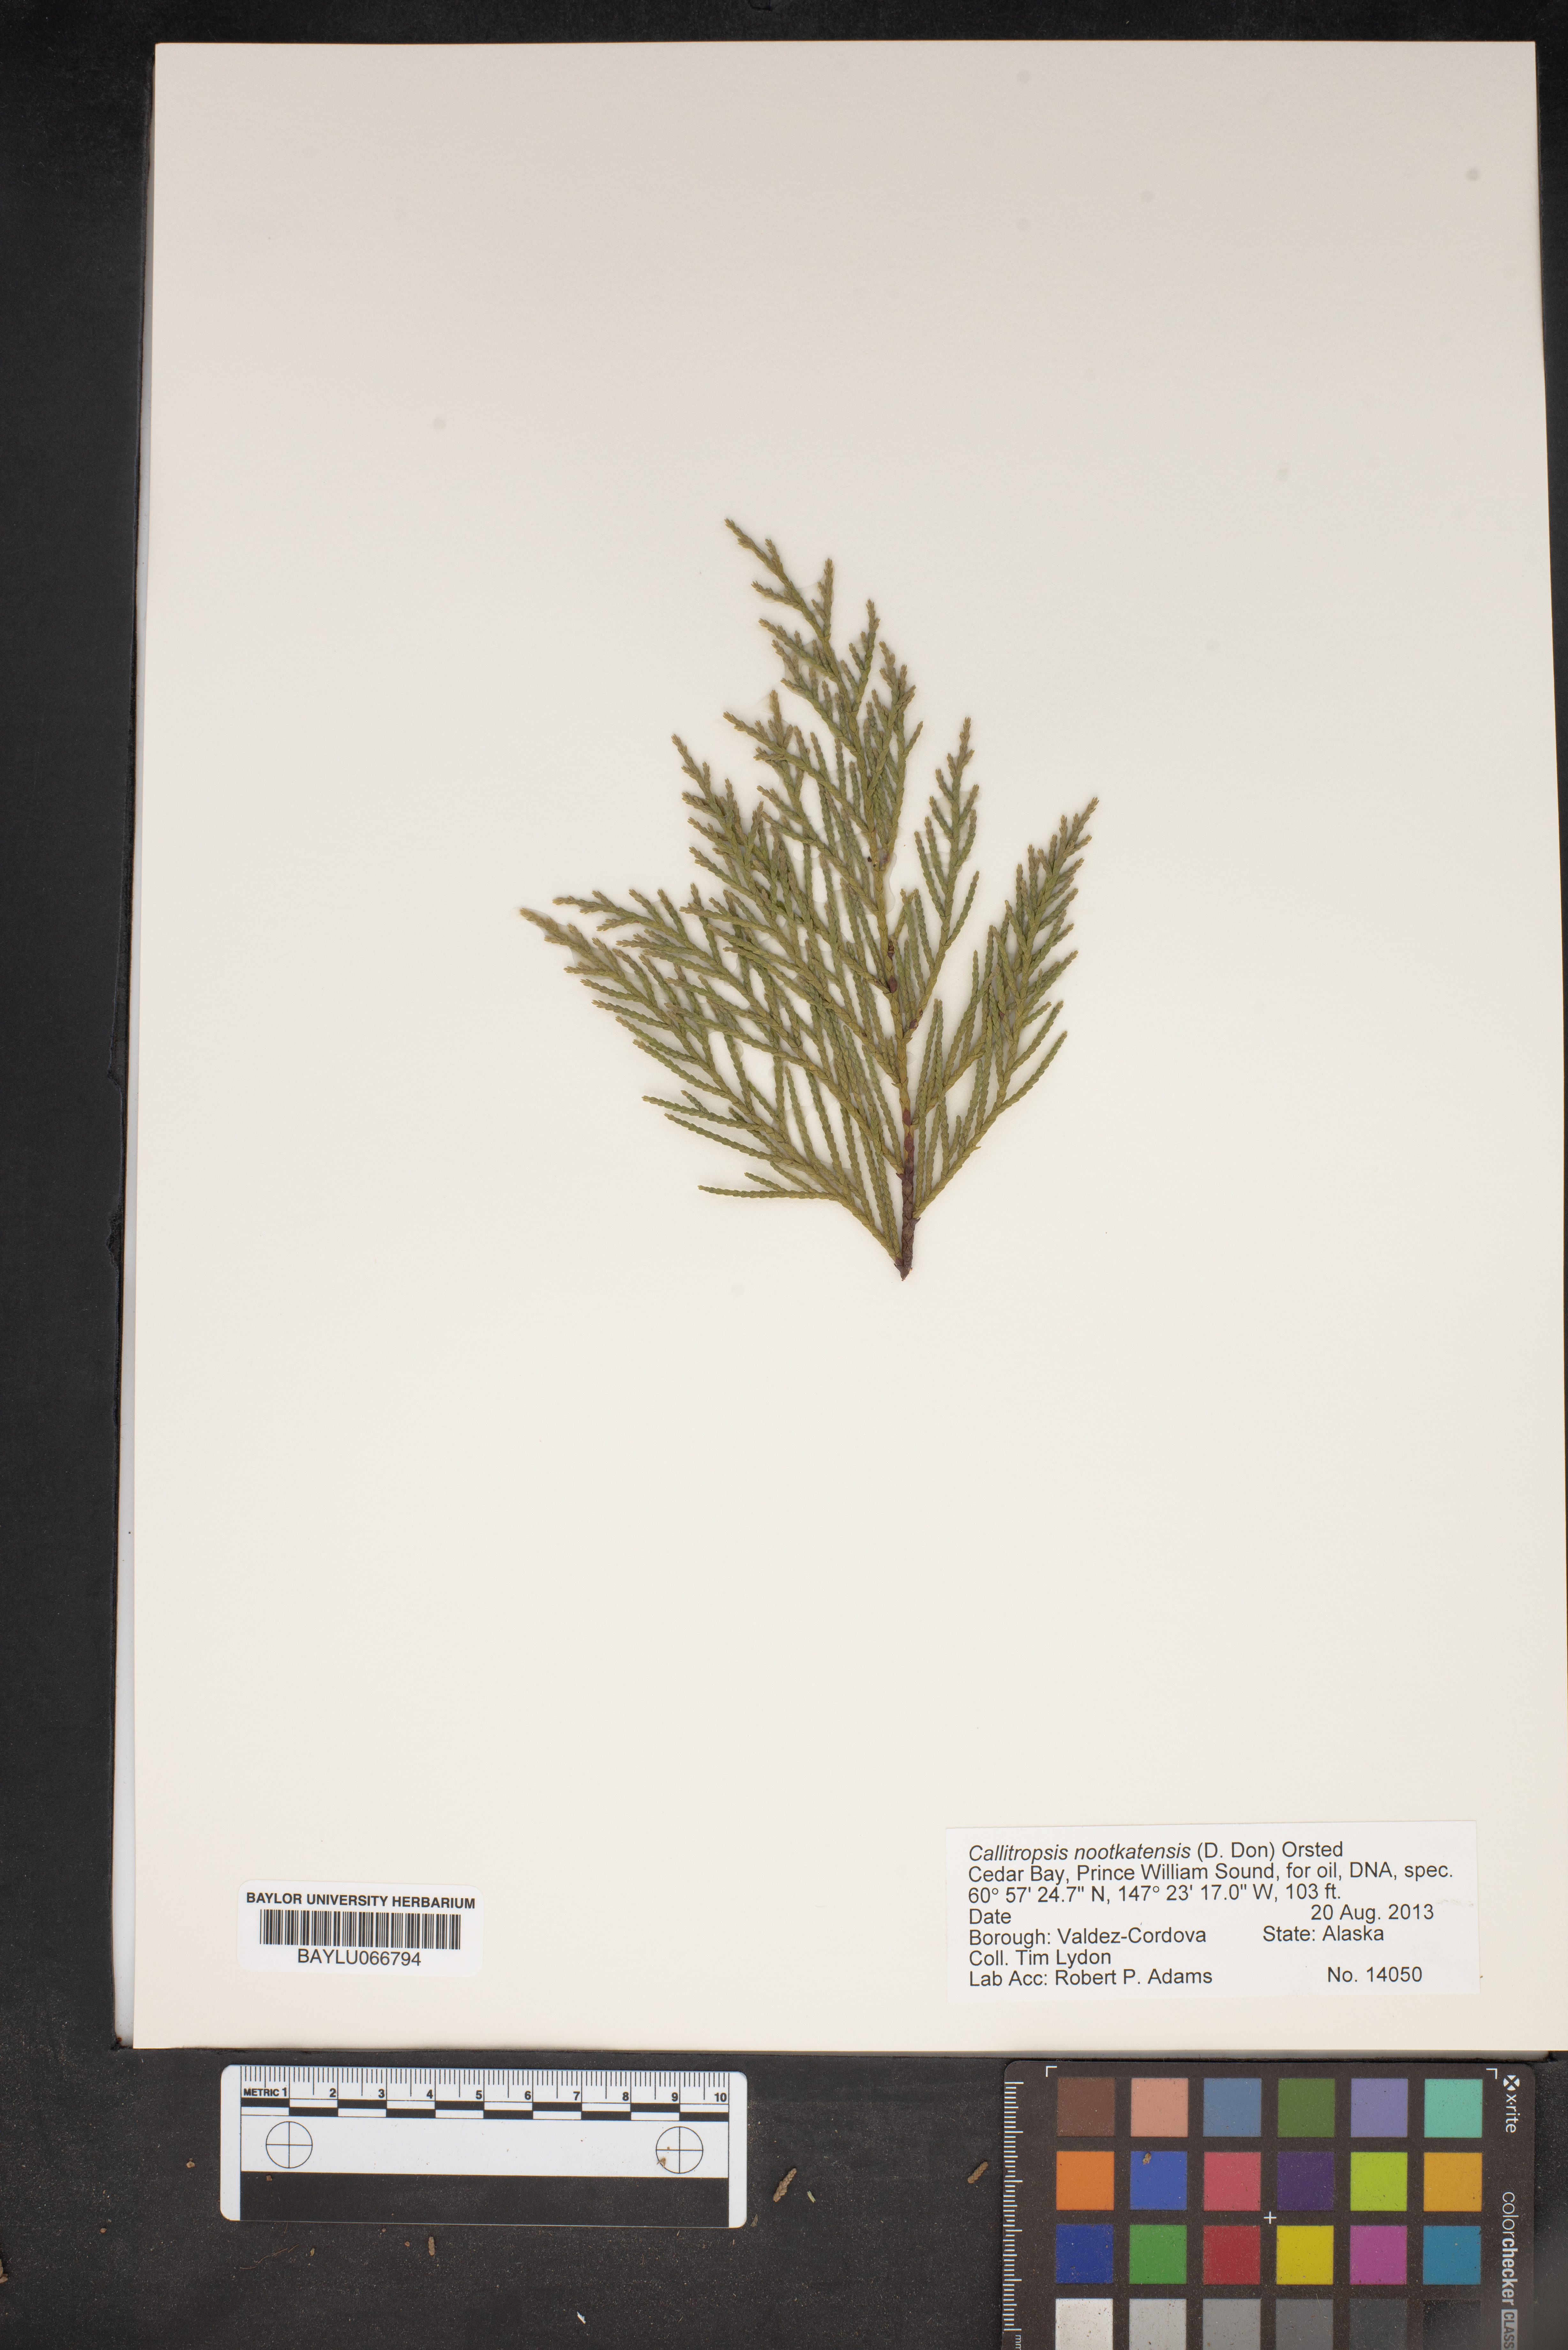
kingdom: Plantae
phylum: Tracheophyta
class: Pinopsida
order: Pinales
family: Cupressaceae
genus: Xanthocyparis
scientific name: Xanthocyparis nootkatensis
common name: Nootka cypress
